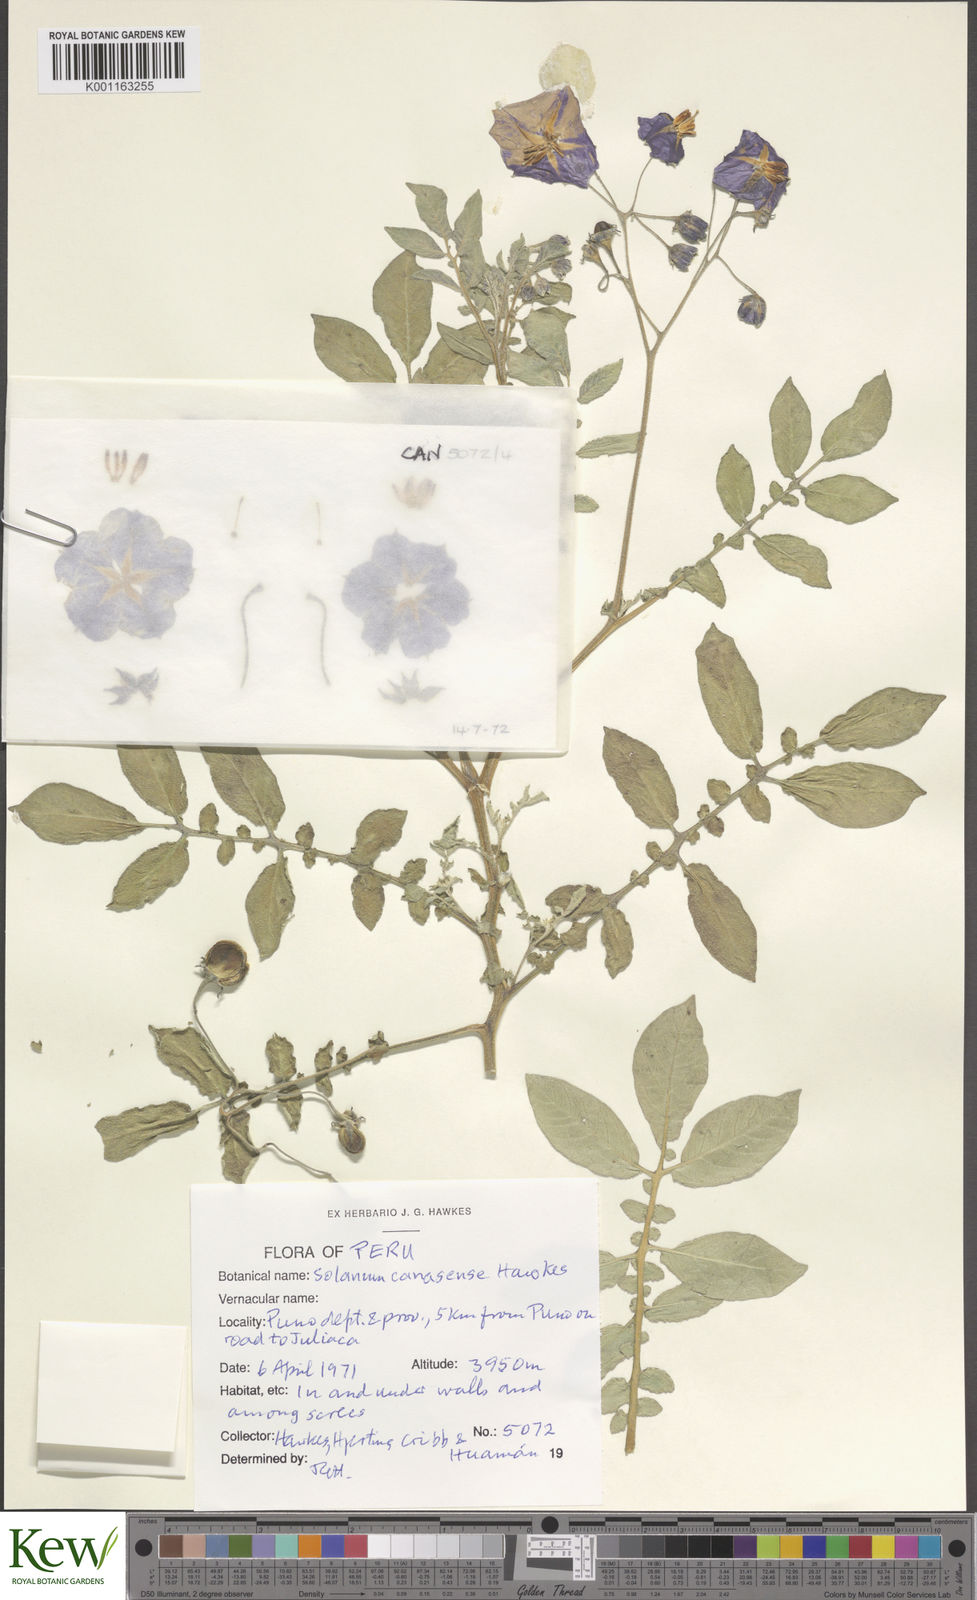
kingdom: Plantae
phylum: Tracheophyta
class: Magnoliopsida
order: Solanales
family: Solanaceae
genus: Solanum
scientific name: Solanum candolleanum
